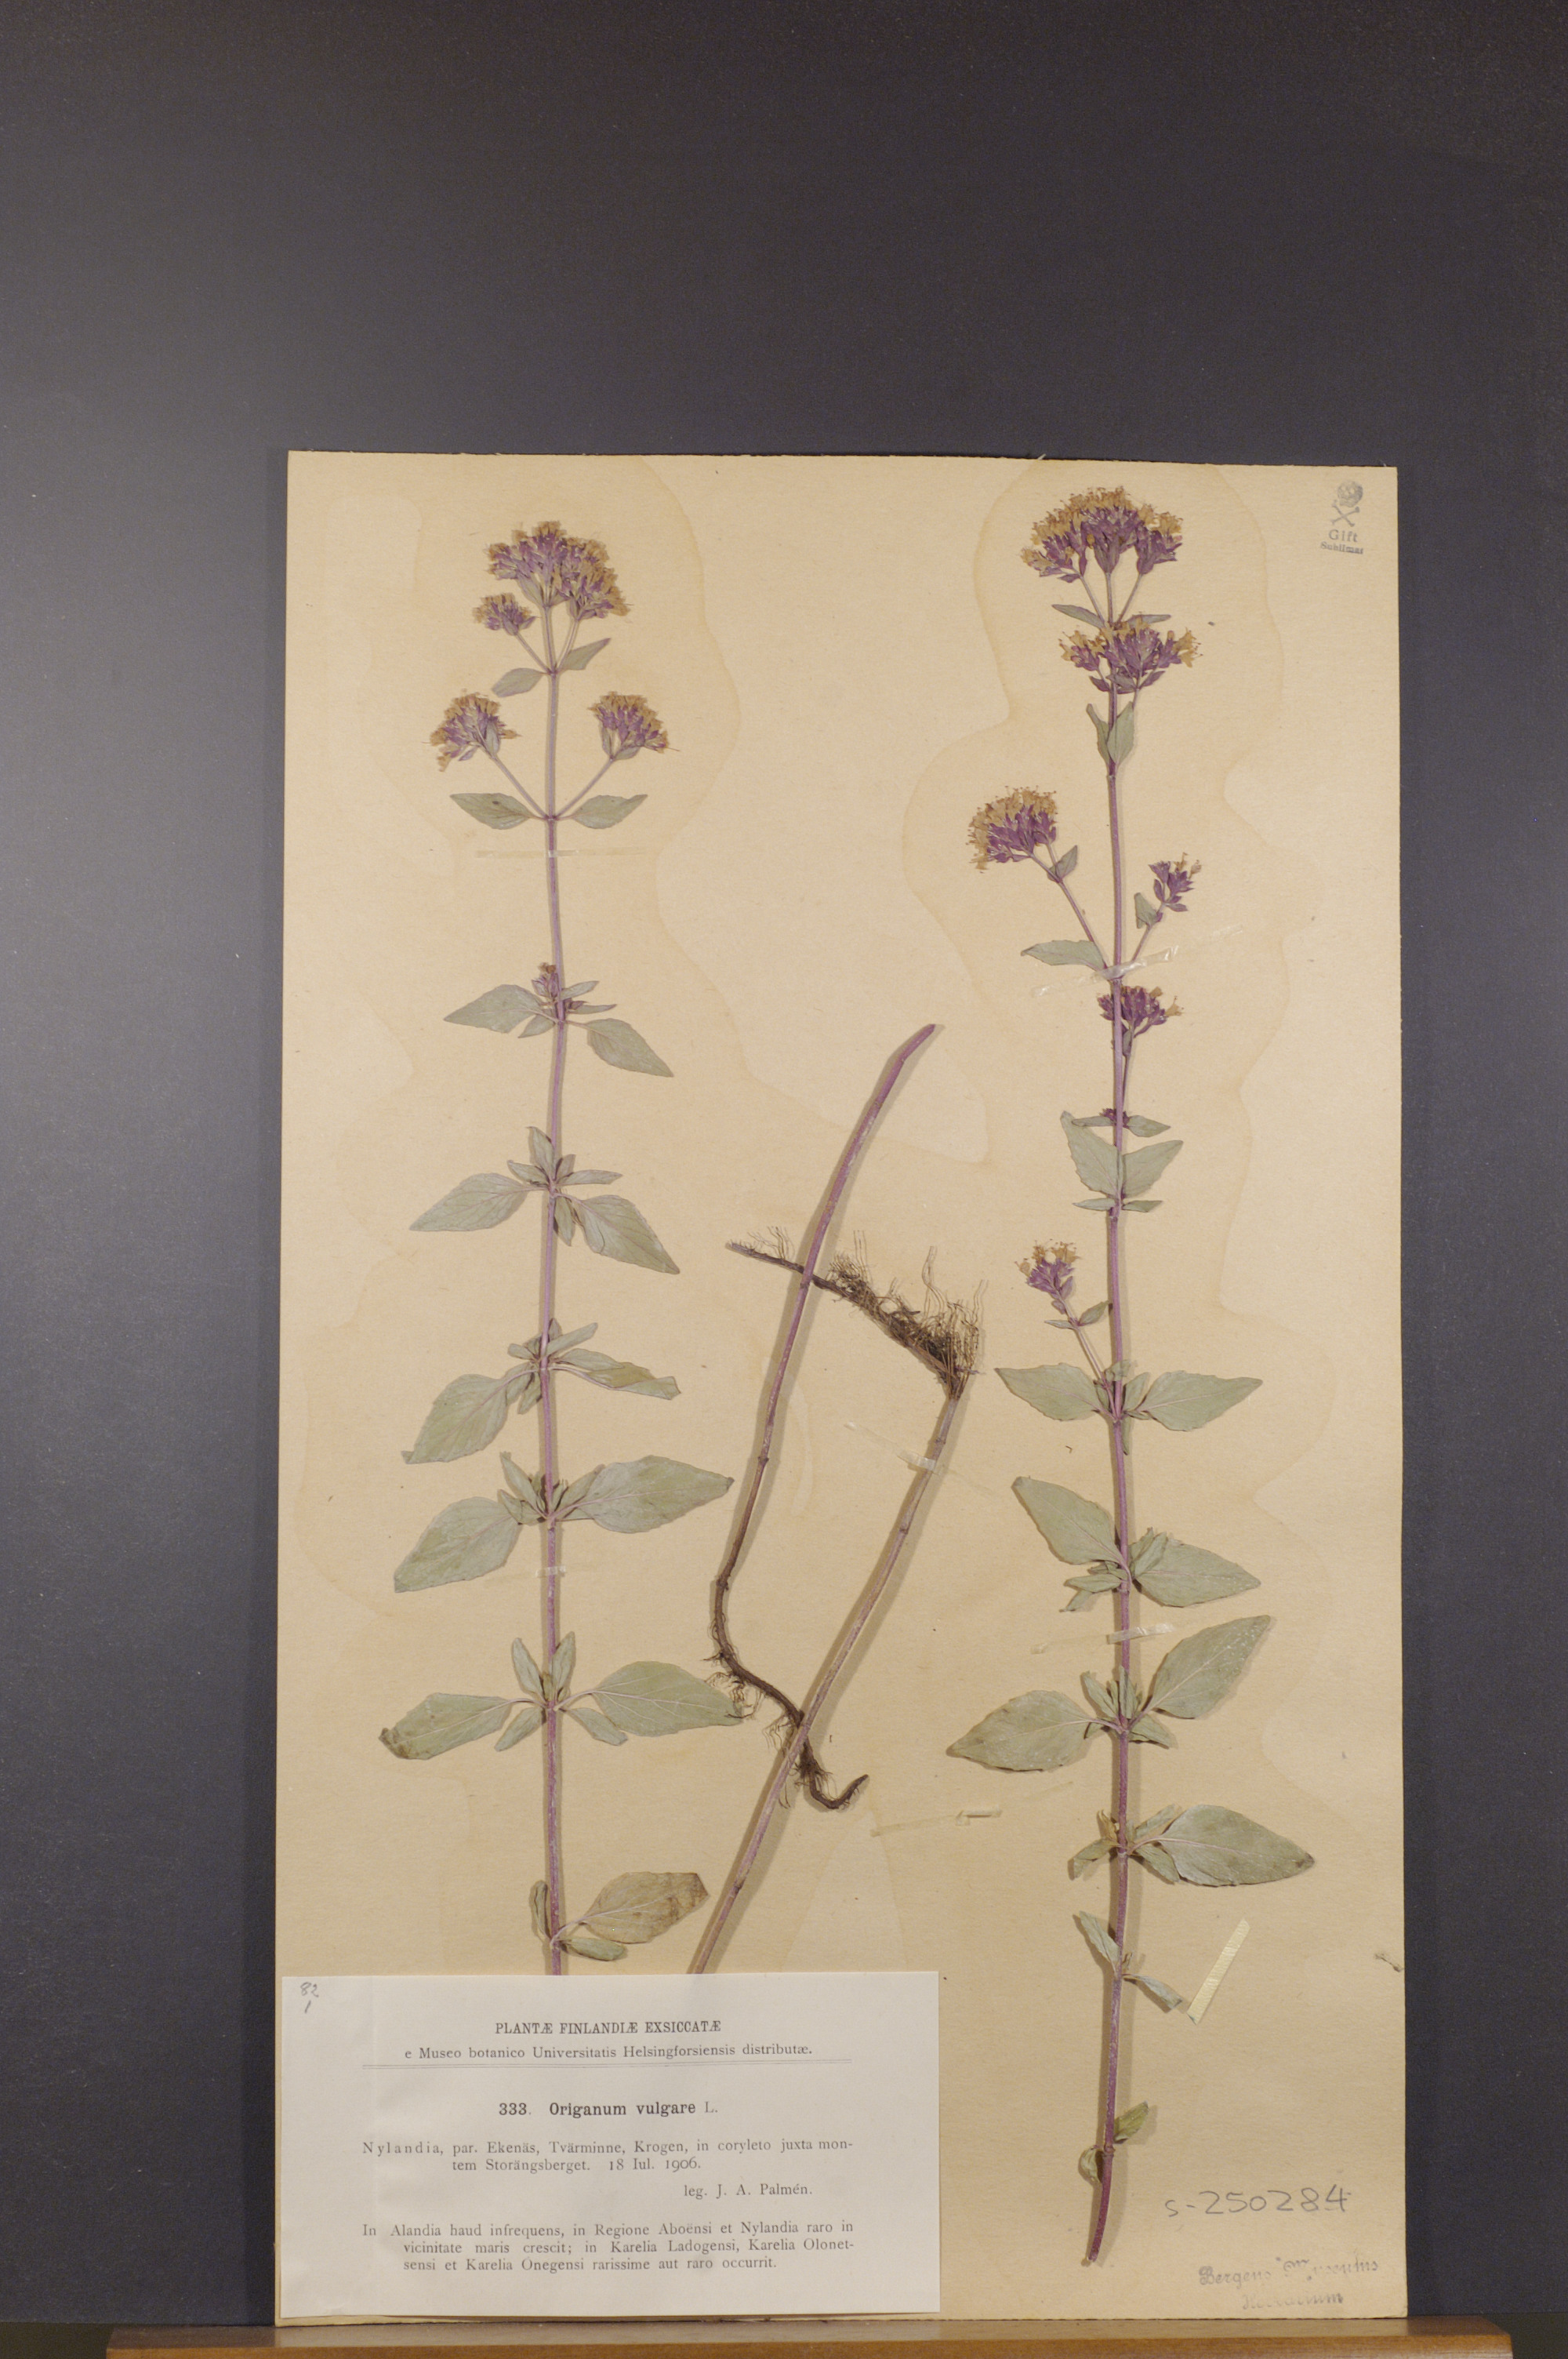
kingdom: Plantae
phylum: Tracheophyta
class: Magnoliopsida
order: Lamiales
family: Lamiaceae
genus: Origanum
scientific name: Origanum vulgare
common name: Wild marjoram
